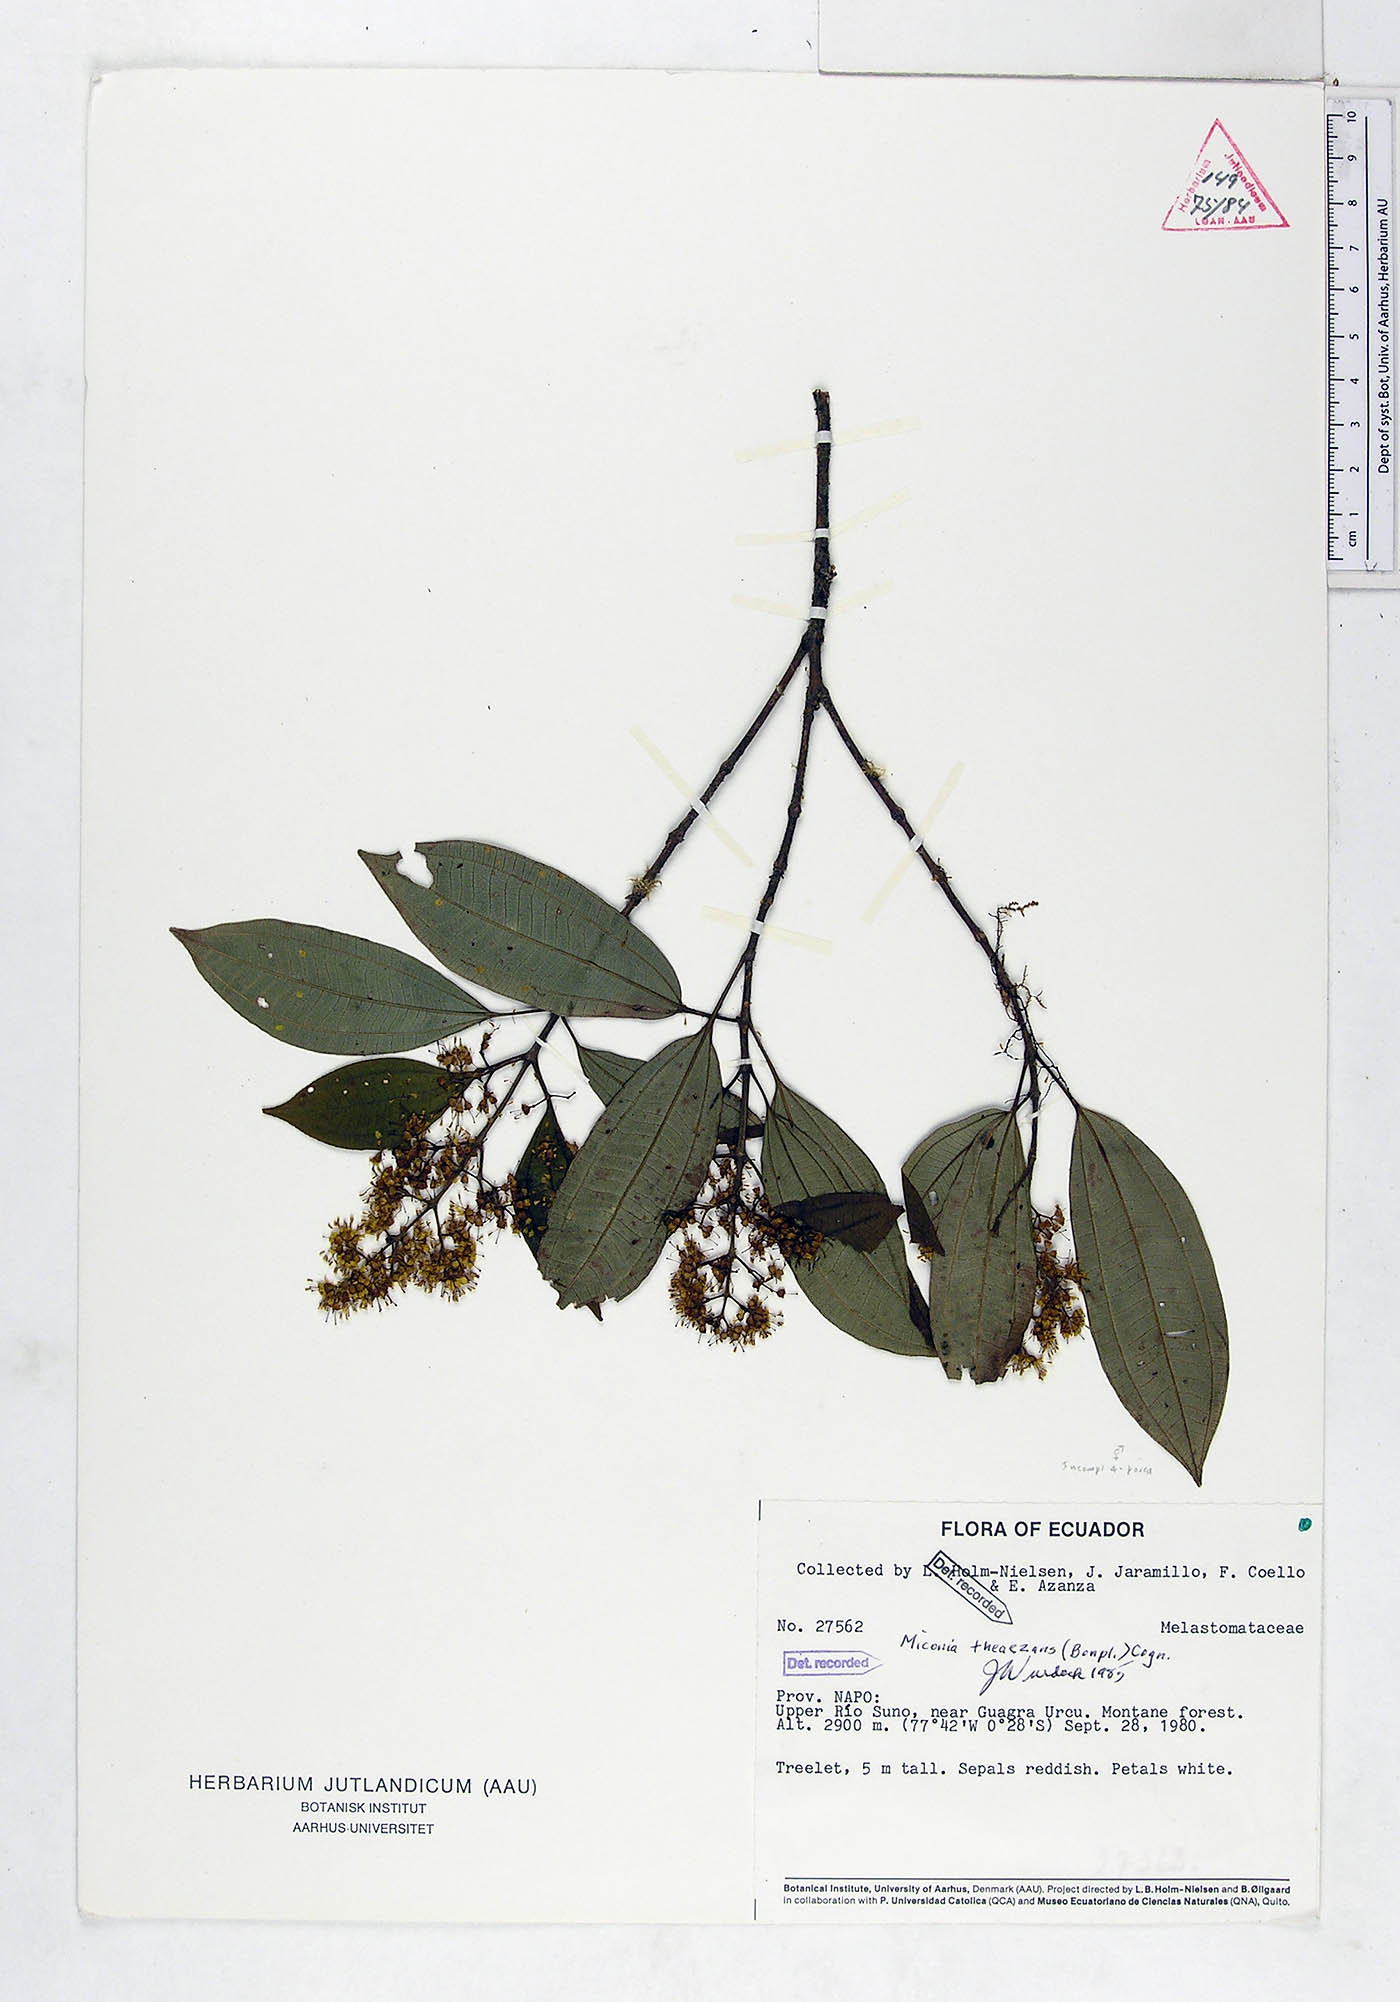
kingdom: Plantae
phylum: Tracheophyta
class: Magnoliopsida
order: Myrtales
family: Melastomataceae
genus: Miconia
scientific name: Miconia theizans
